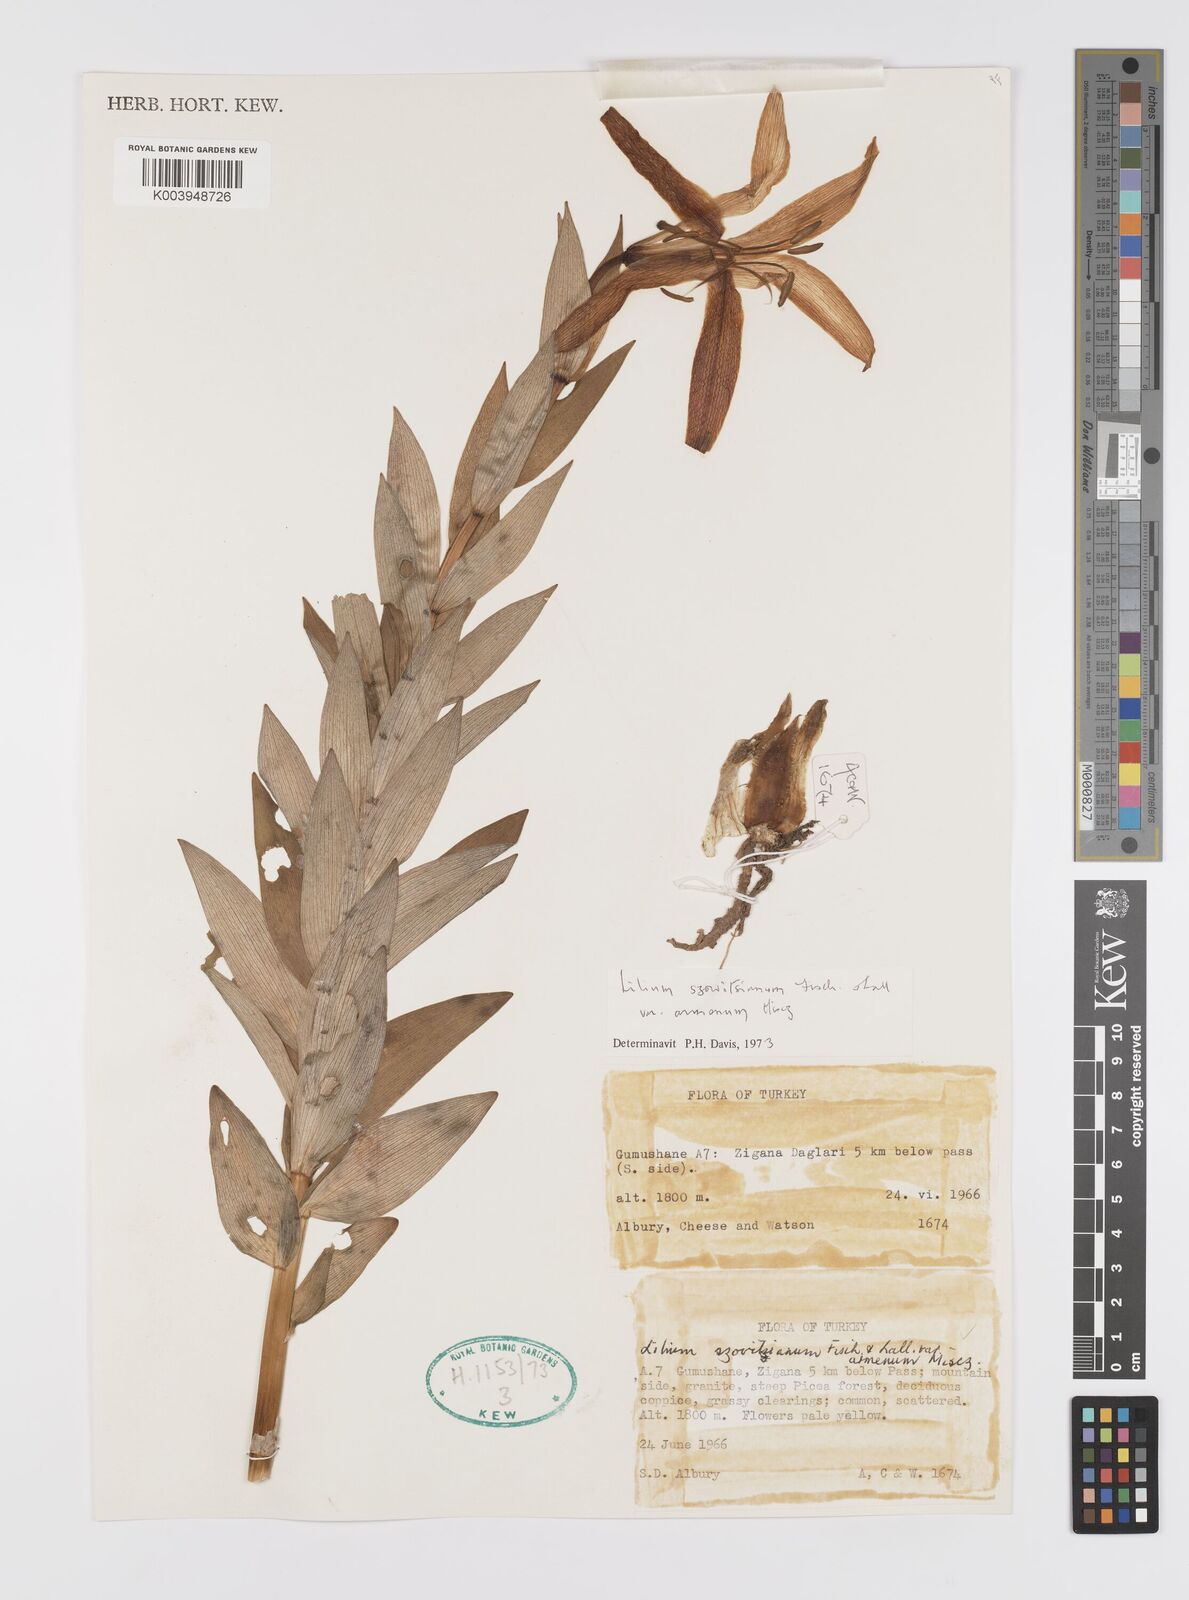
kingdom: Plantae
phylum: Tracheophyta
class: Liliopsida
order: Liliales
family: Liliaceae
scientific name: Liliaceae
